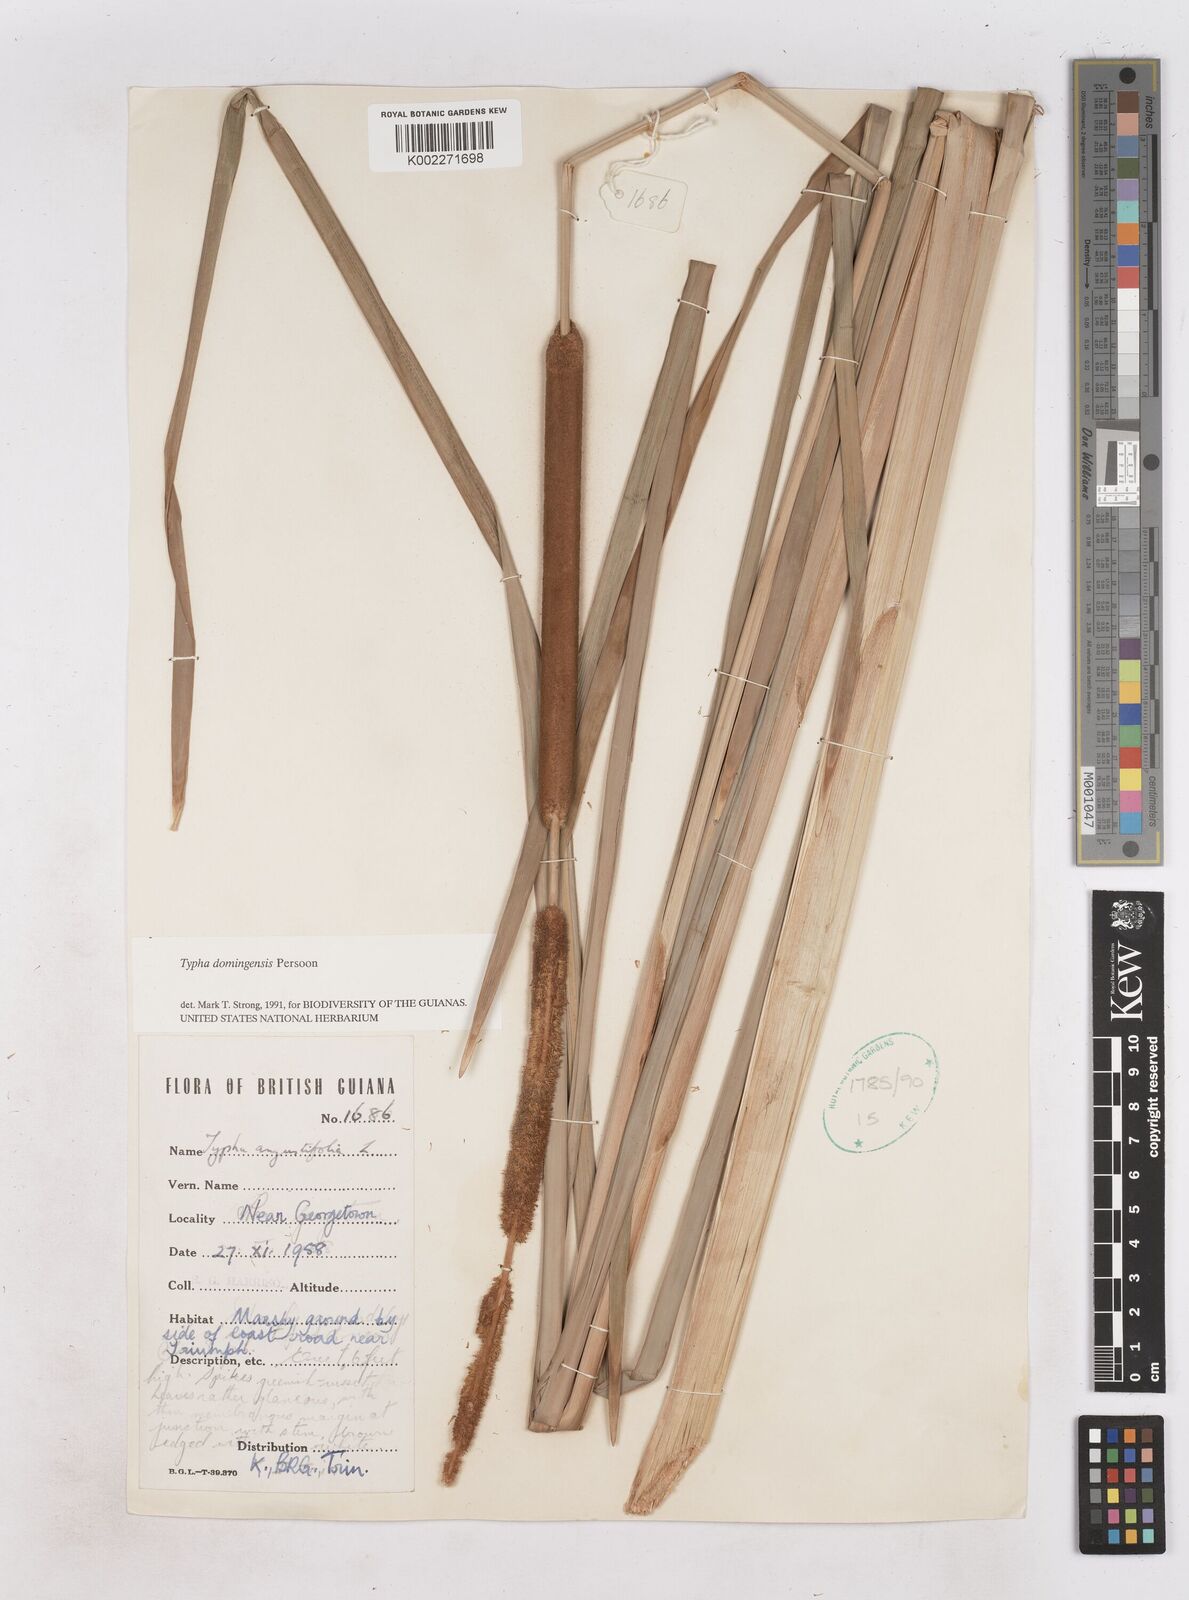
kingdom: Plantae
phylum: Tracheophyta
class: Liliopsida
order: Poales
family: Typhaceae
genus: Typha
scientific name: Typha domingensis
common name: Southern cattail
